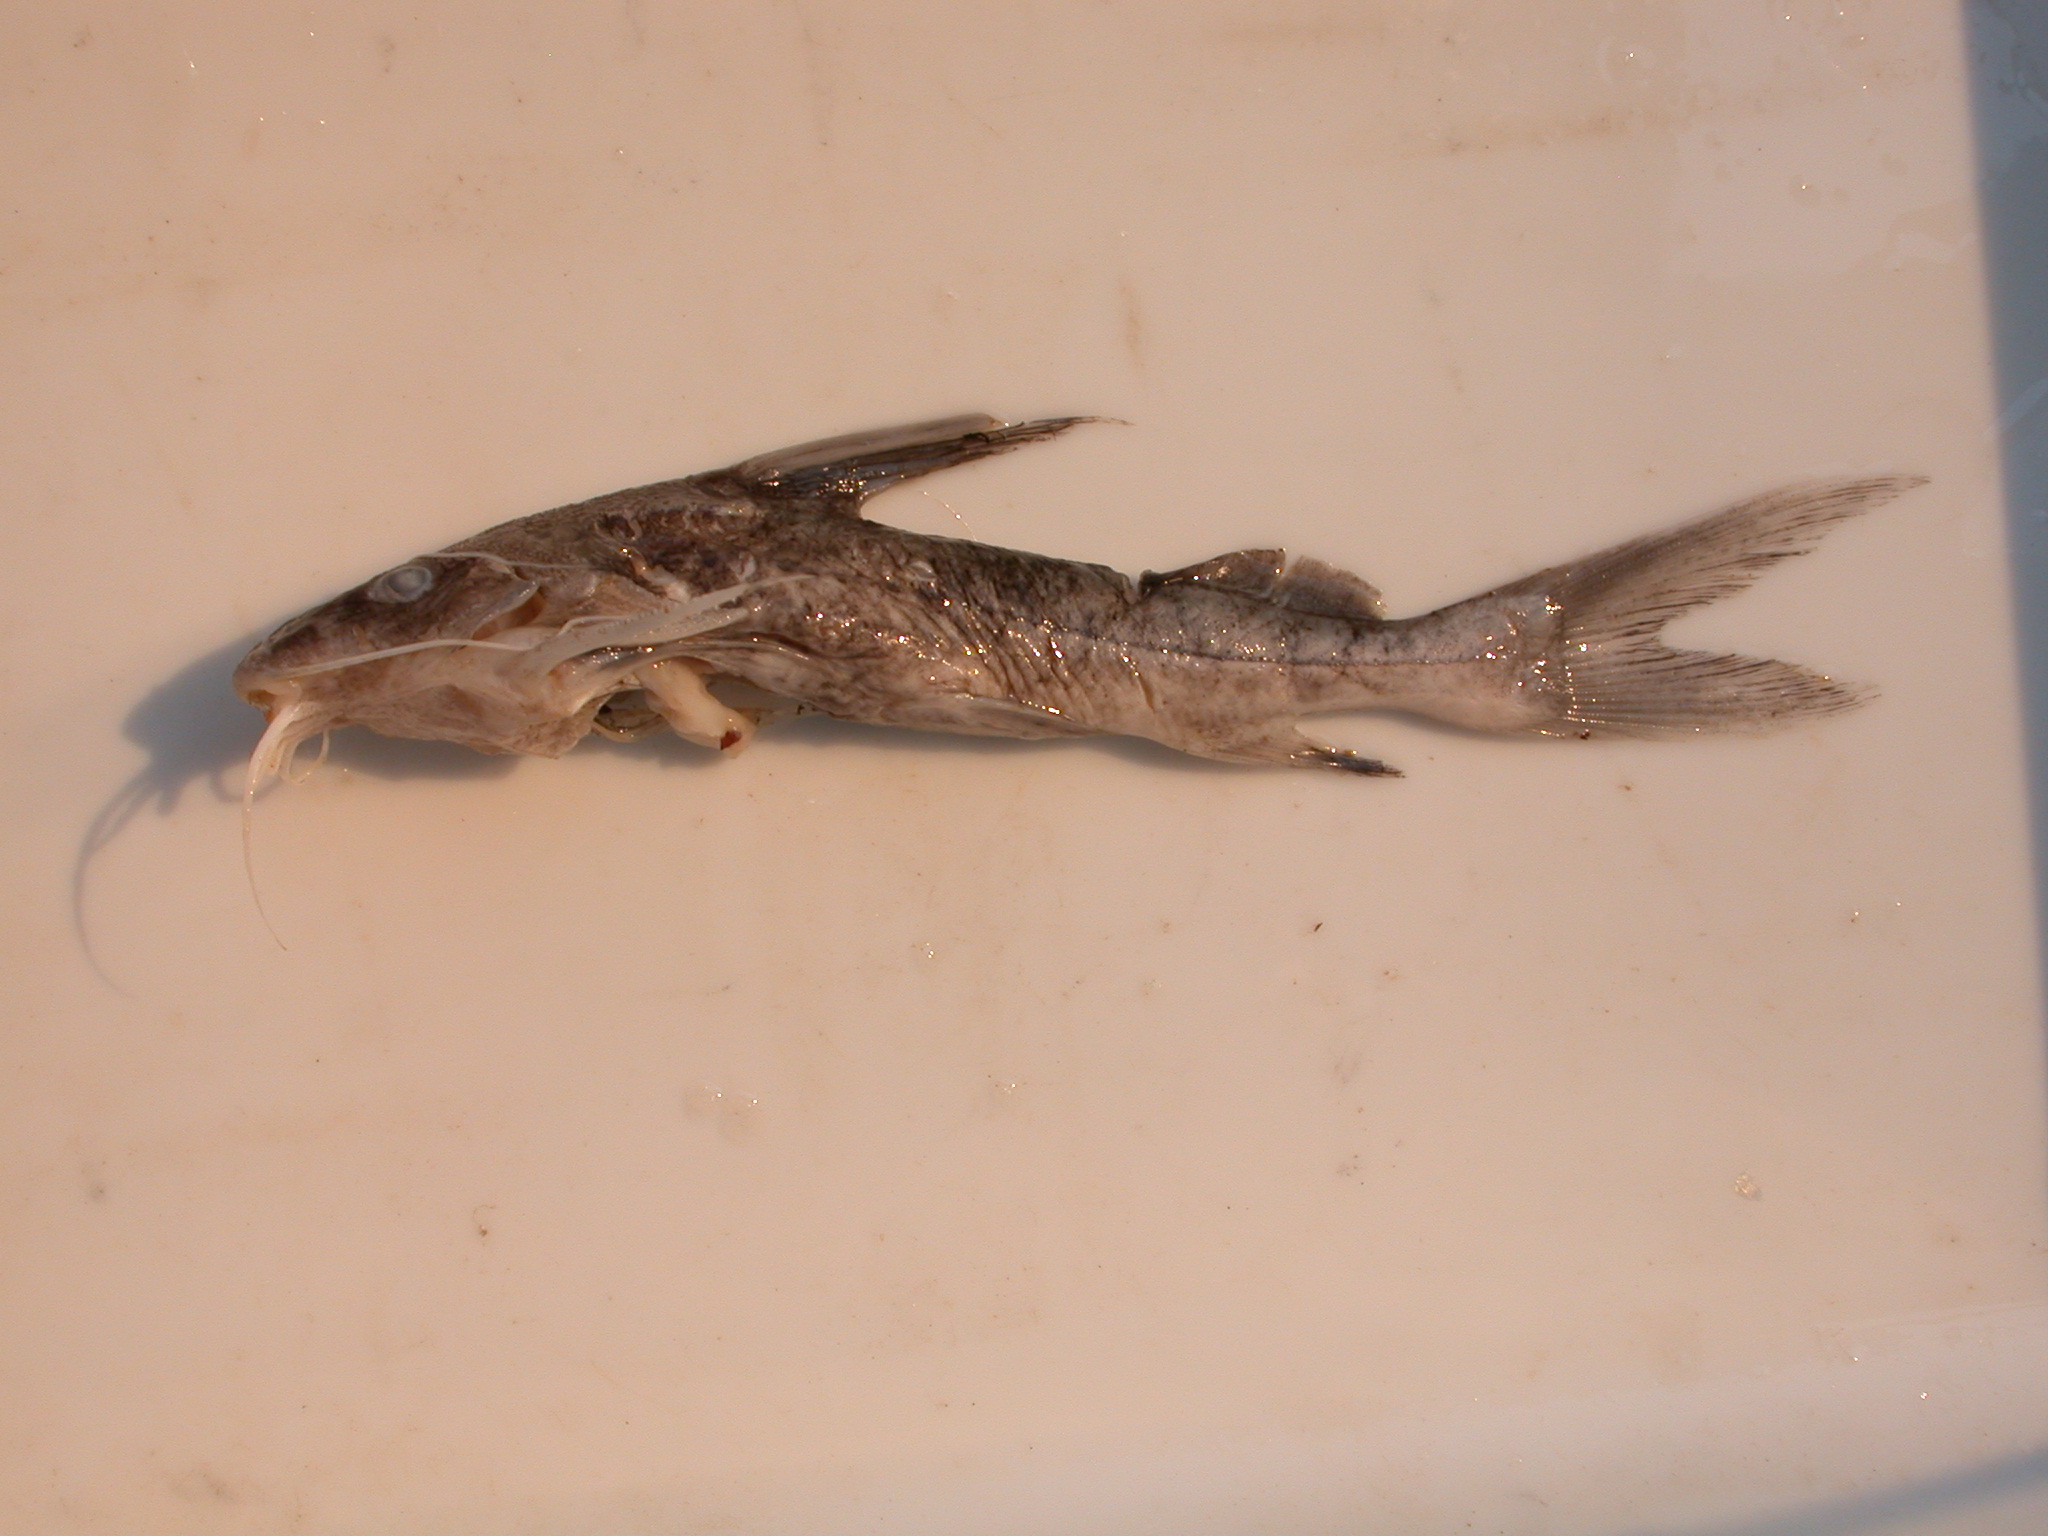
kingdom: Animalia
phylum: Chordata
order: Siluriformes
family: Mochokidae
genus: Synodontis
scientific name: Synodontis zambezensis
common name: Brown squeaker
